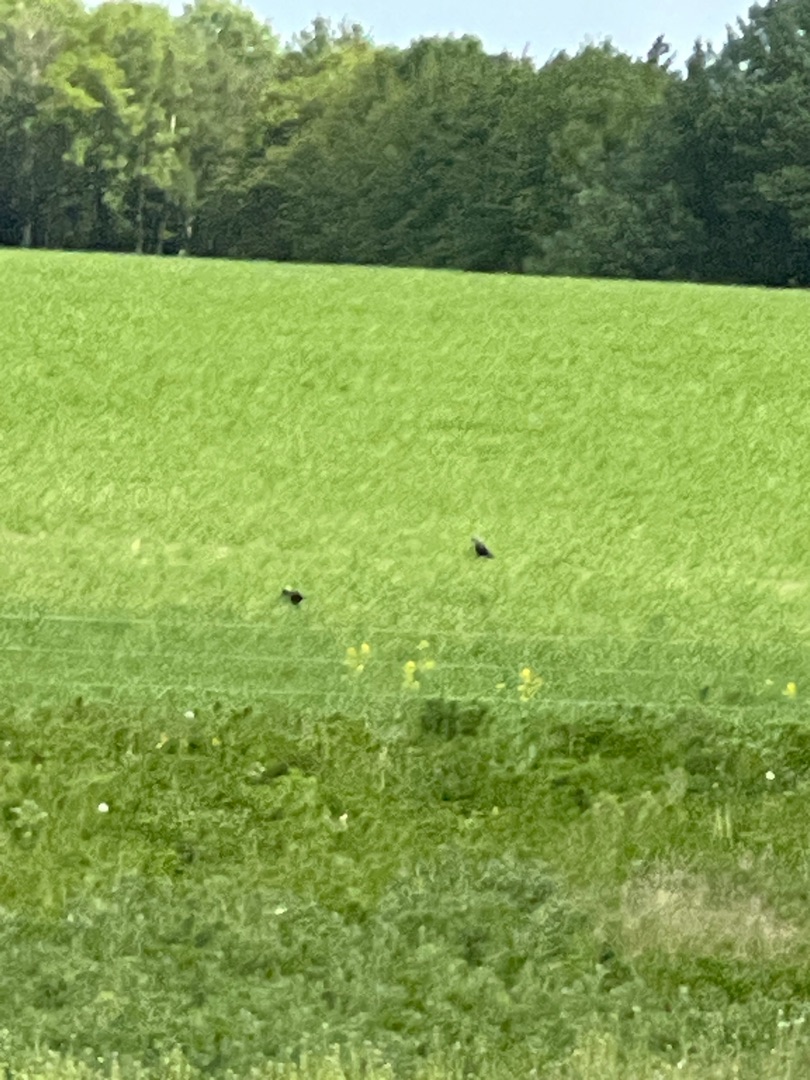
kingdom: Animalia
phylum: Chordata
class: Aves
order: Passeriformes
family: Corvidae
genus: Coloeus
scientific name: Coloeus monedula
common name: Allike
